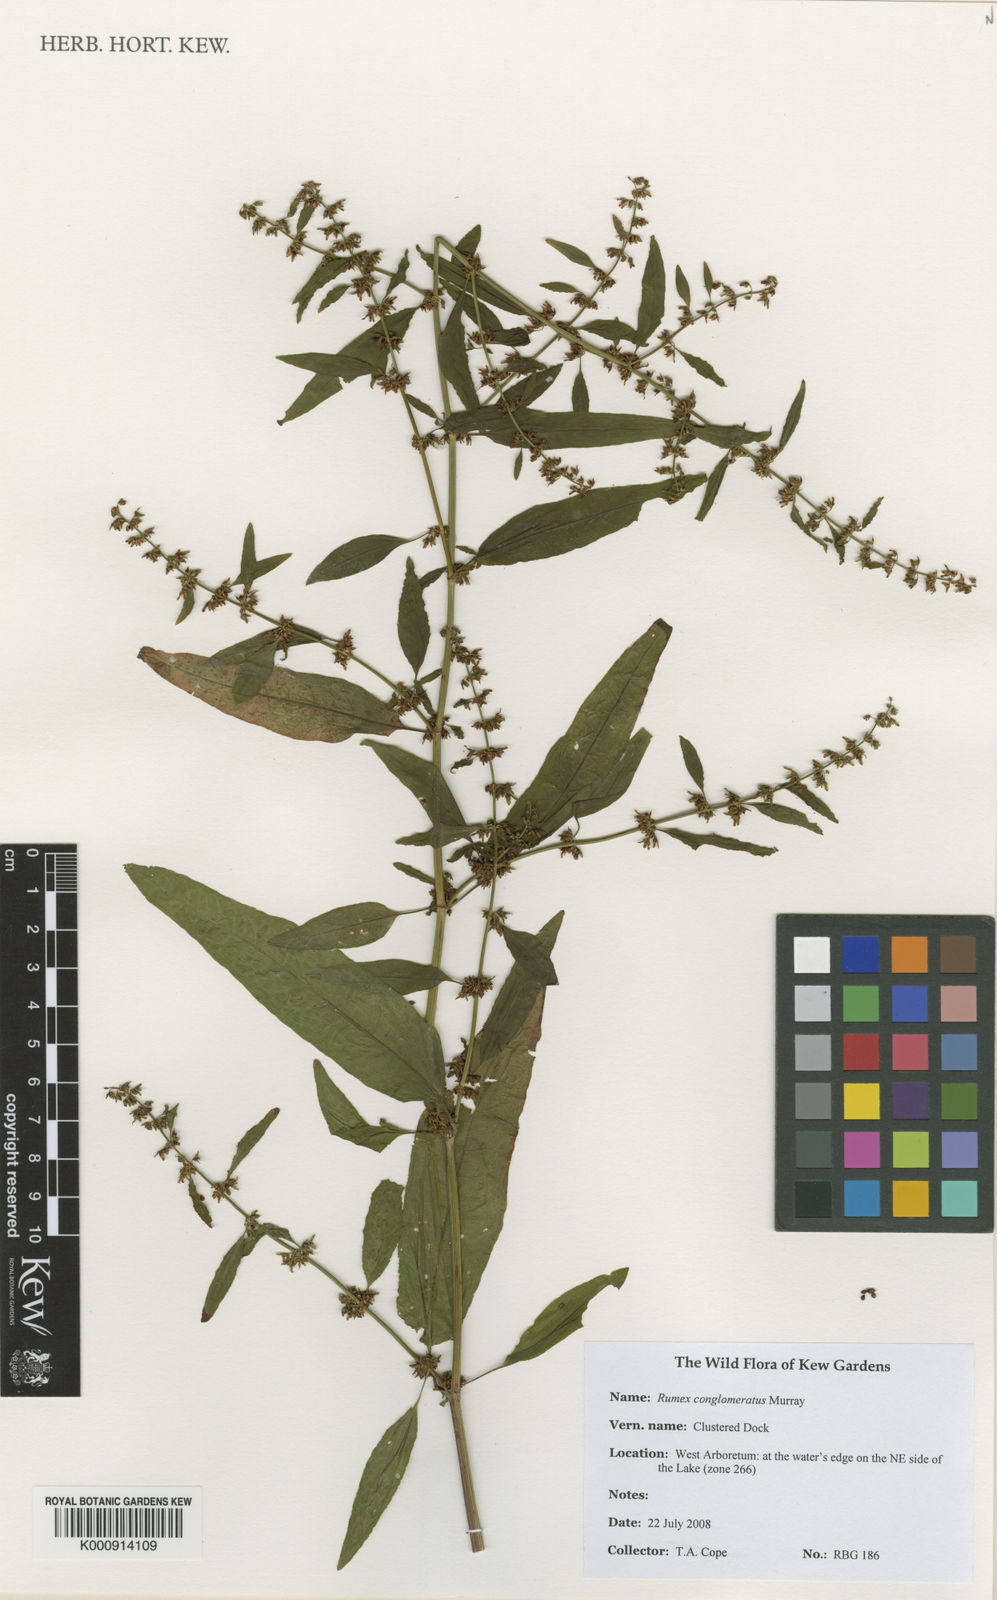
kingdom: Plantae
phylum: Tracheophyta
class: Magnoliopsida
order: Caryophyllales
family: Polygonaceae
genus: Rumex
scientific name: Rumex conglomeratus
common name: Clustered dock
